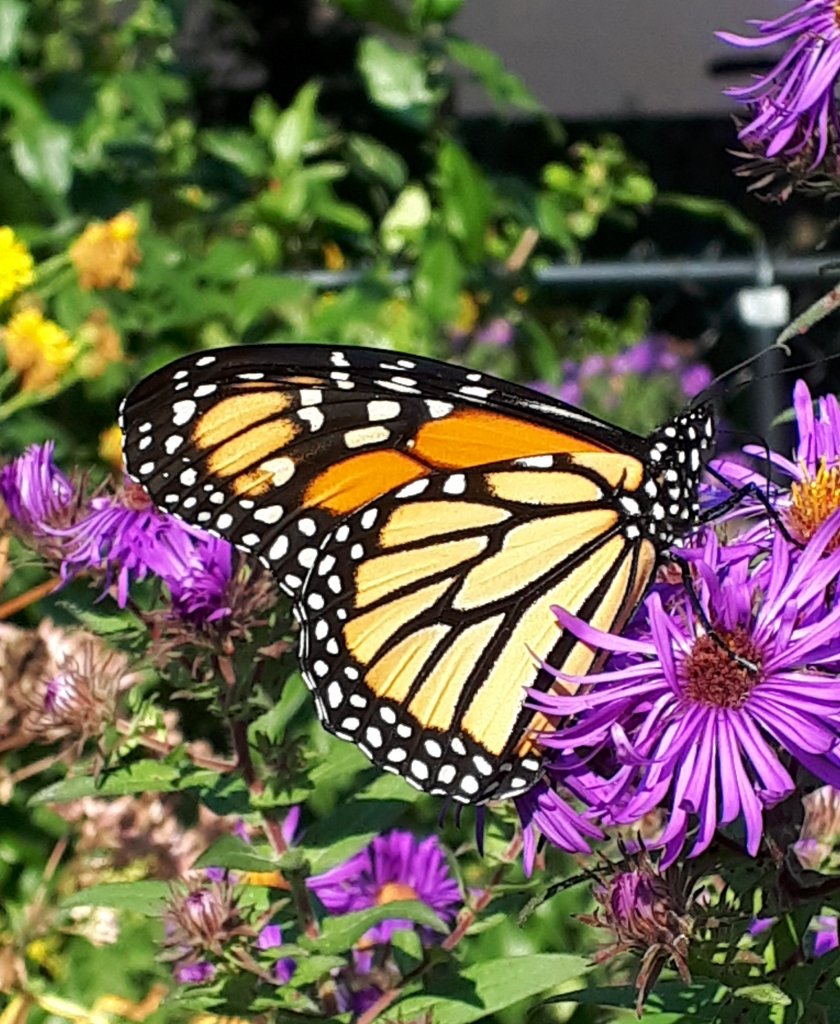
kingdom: Animalia
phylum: Arthropoda
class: Insecta
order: Lepidoptera
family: Nymphalidae
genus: Danaus
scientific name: Danaus plexippus
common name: Monarch
